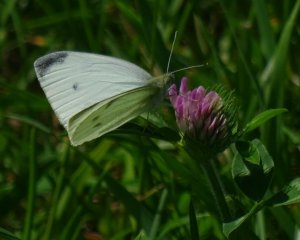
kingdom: Animalia
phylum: Arthropoda
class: Insecta
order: Lepidoptera
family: Pieridae
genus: Pieris
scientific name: Pieris rapae
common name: Cabbage White
